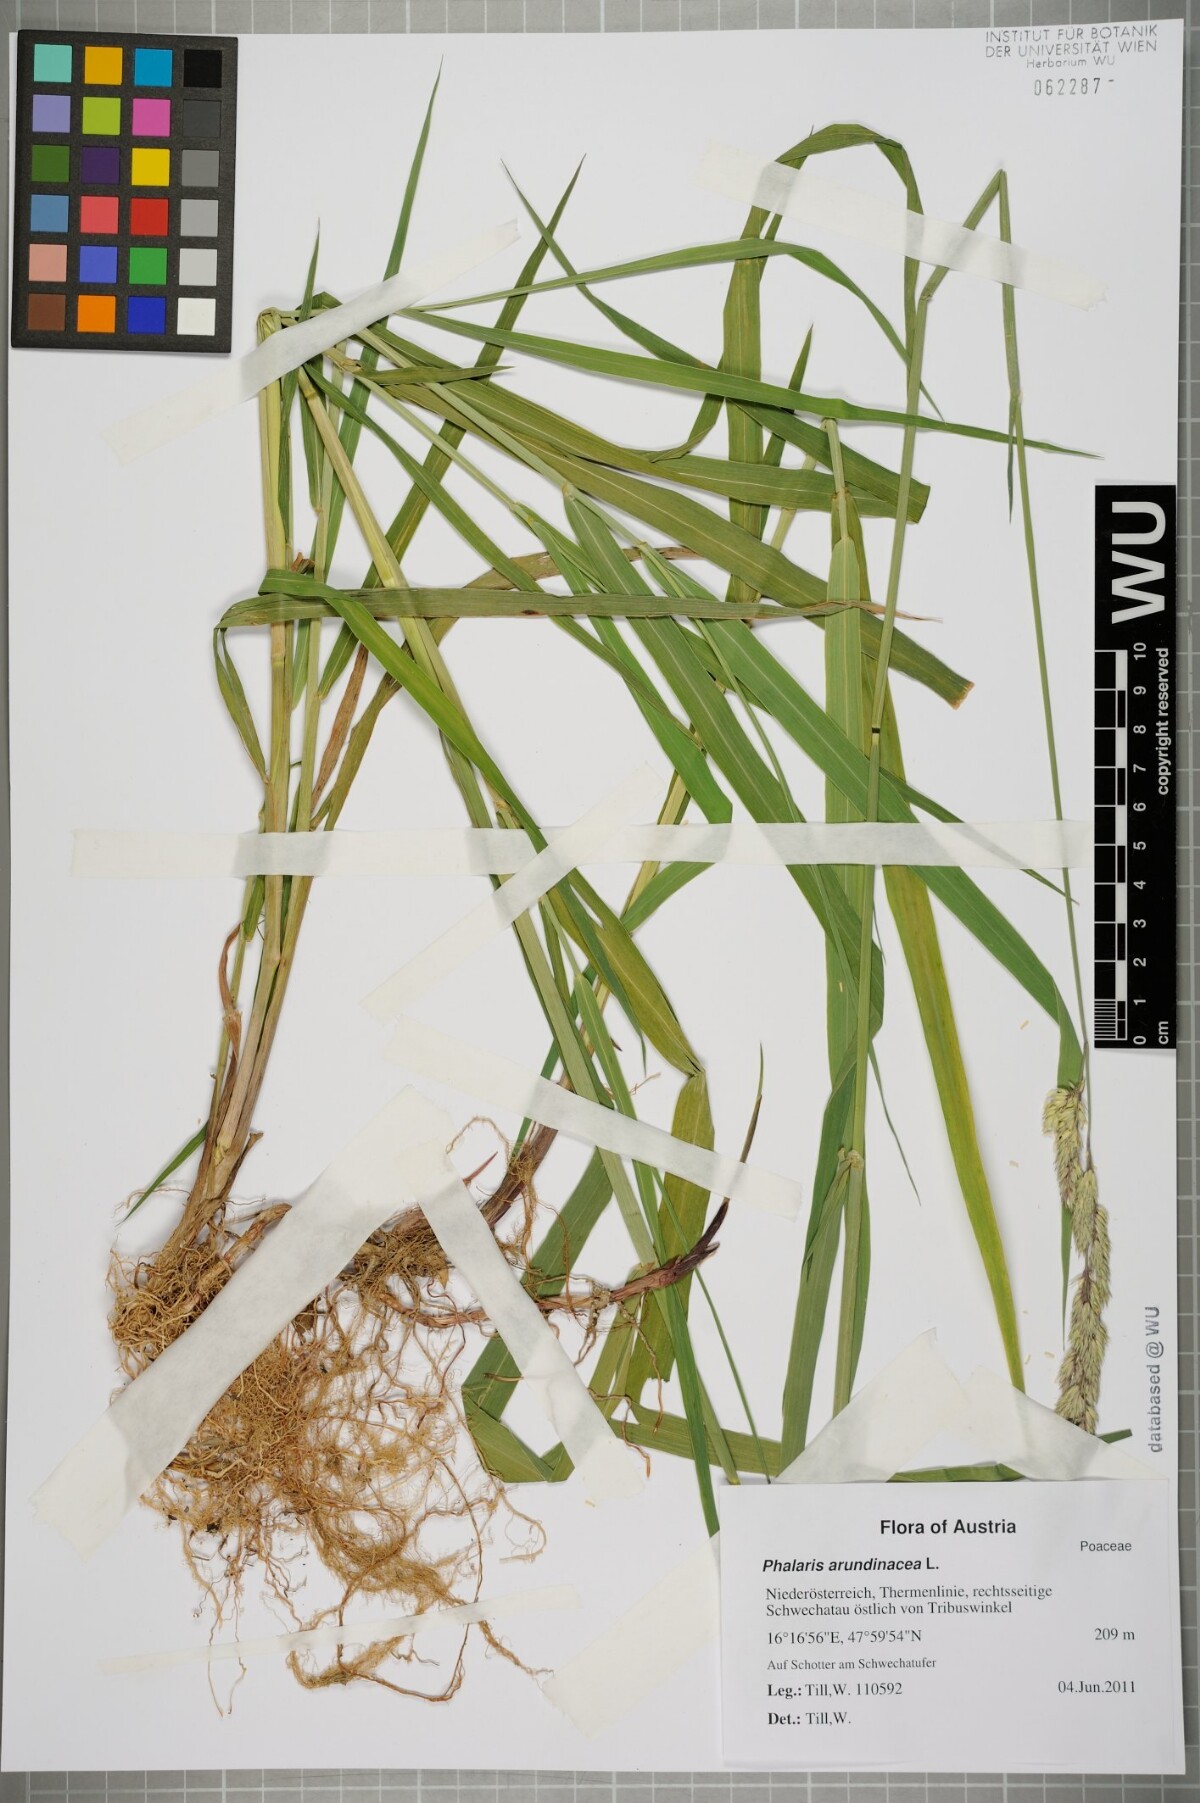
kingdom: Plantae
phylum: Tracheophyta
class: Liliopsida
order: Poales
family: Poaceae
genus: Phalaris
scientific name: Phalaris arundinacea
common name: Reed canary-grass
